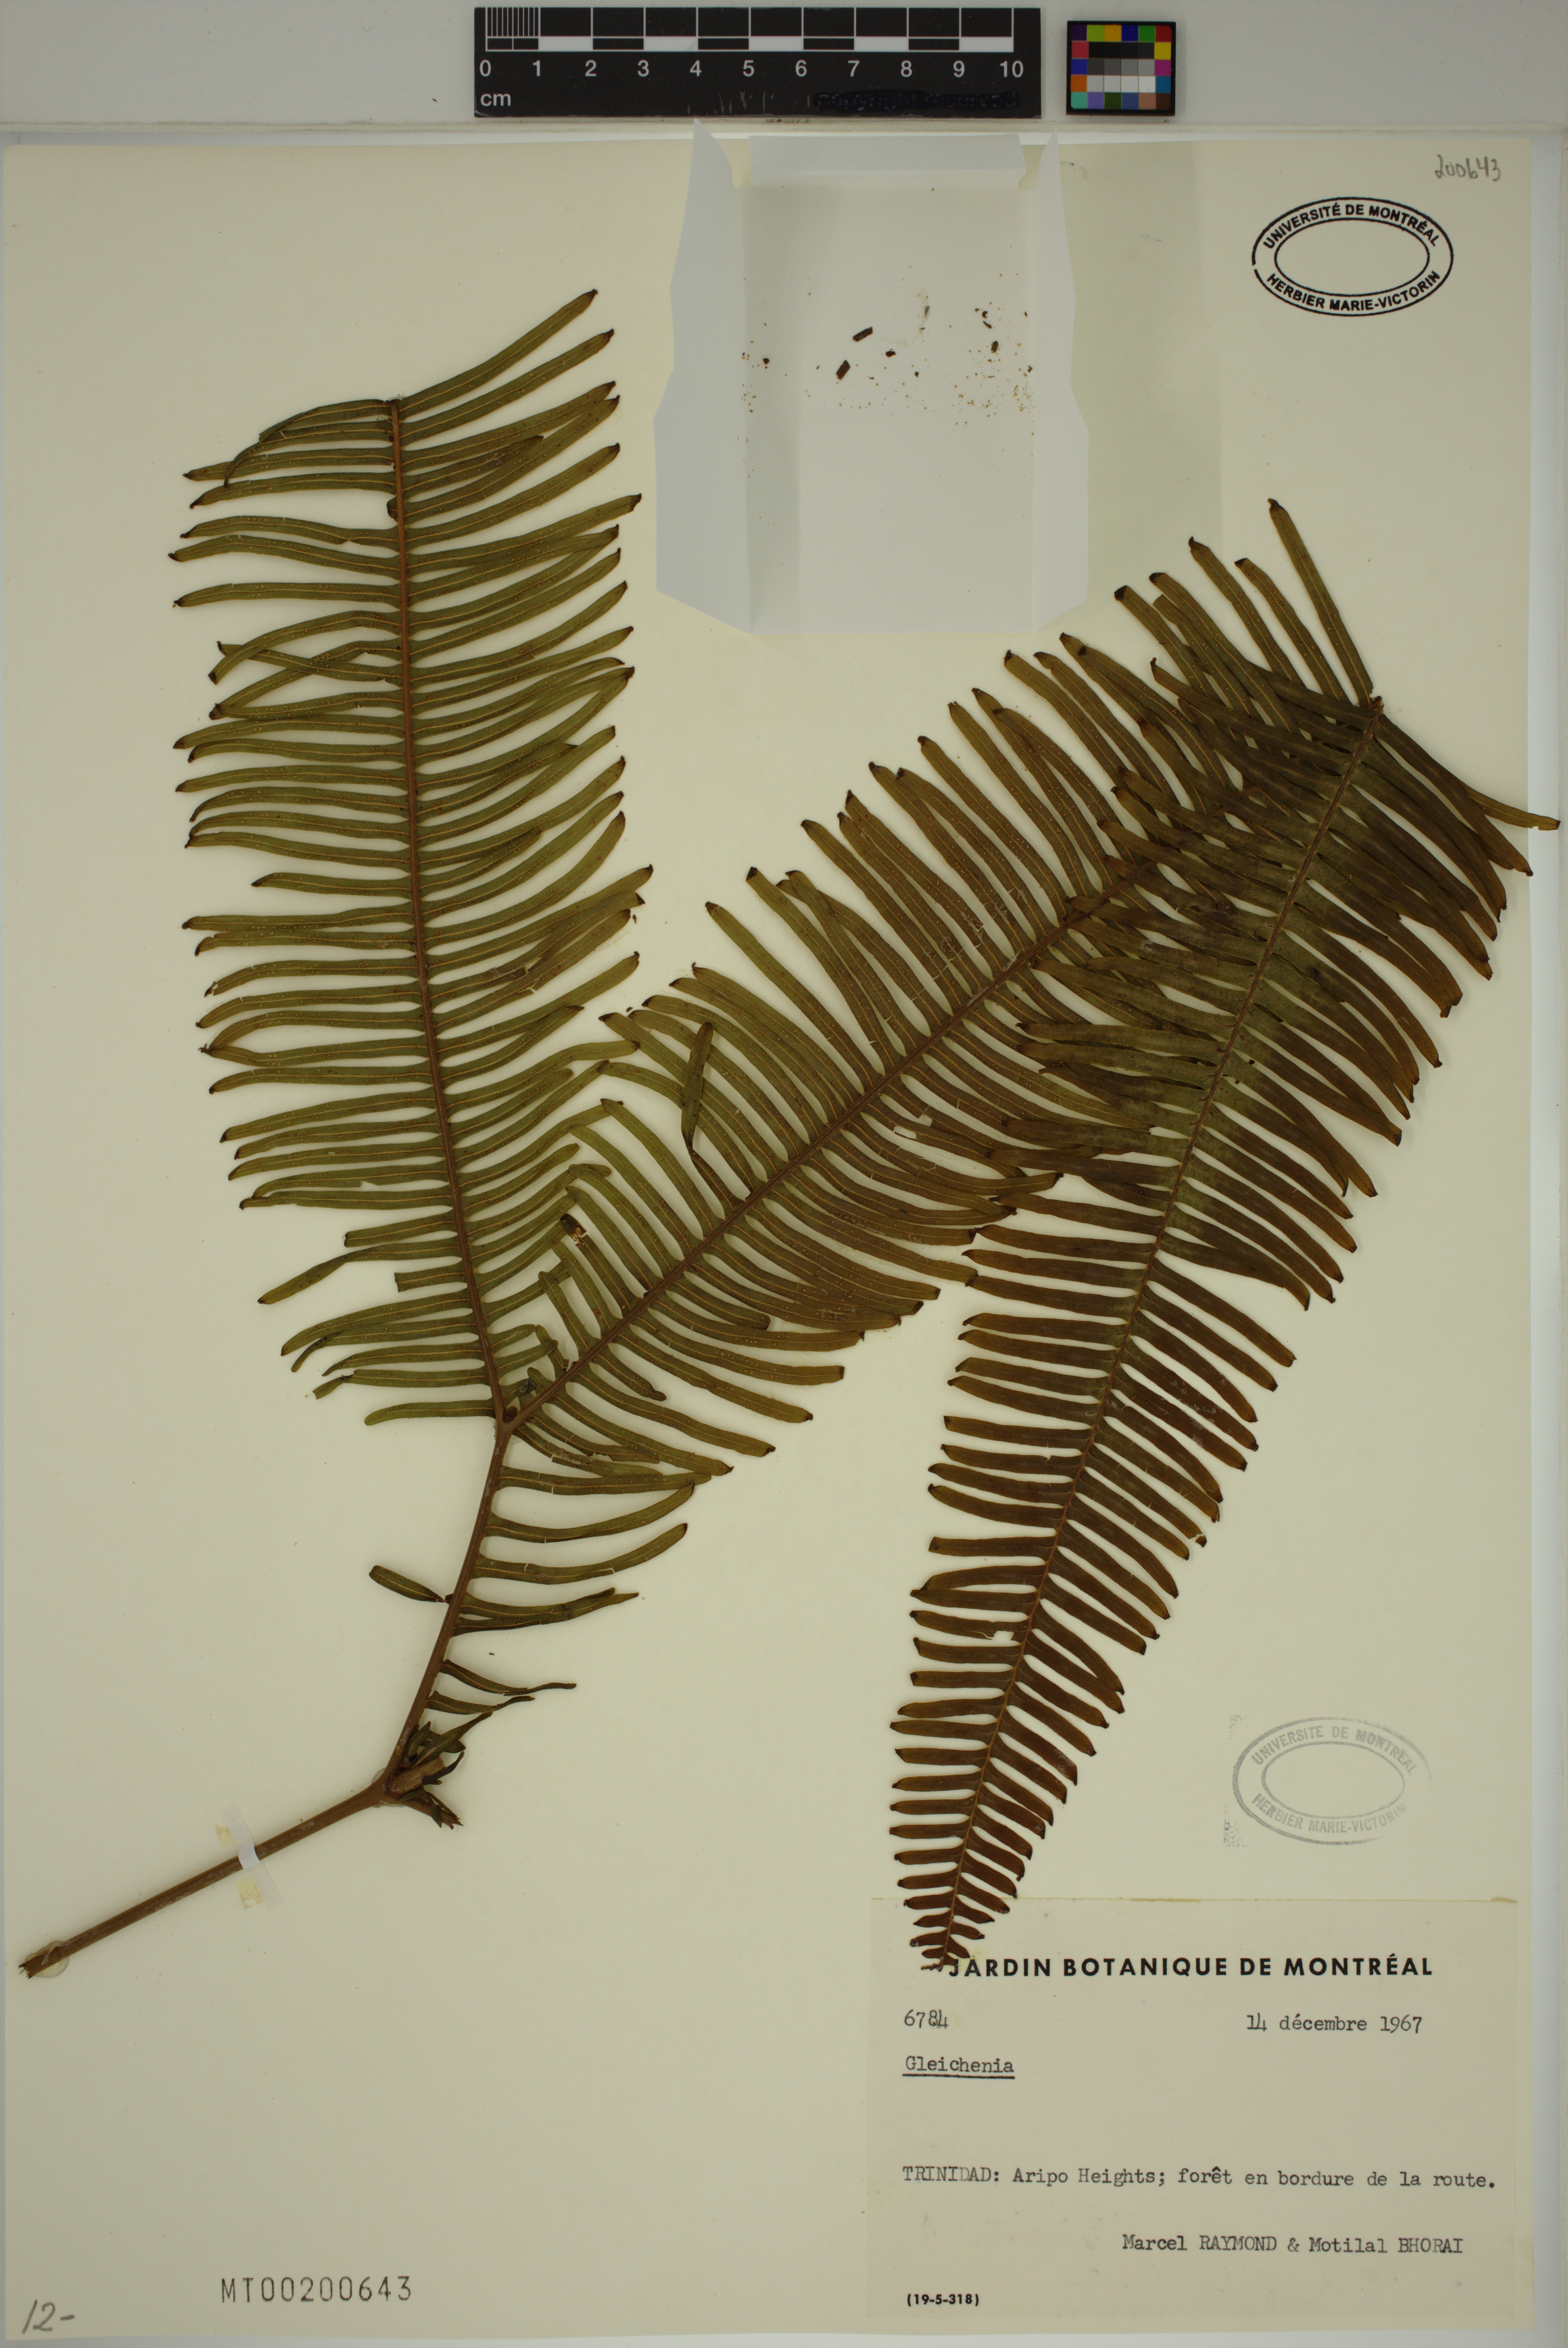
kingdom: Plantae
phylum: Tracheophyta
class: Polypodiopsida
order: Gleicheniales
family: Gleicheniaceae
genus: Gleichenia
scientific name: Gleichenia
